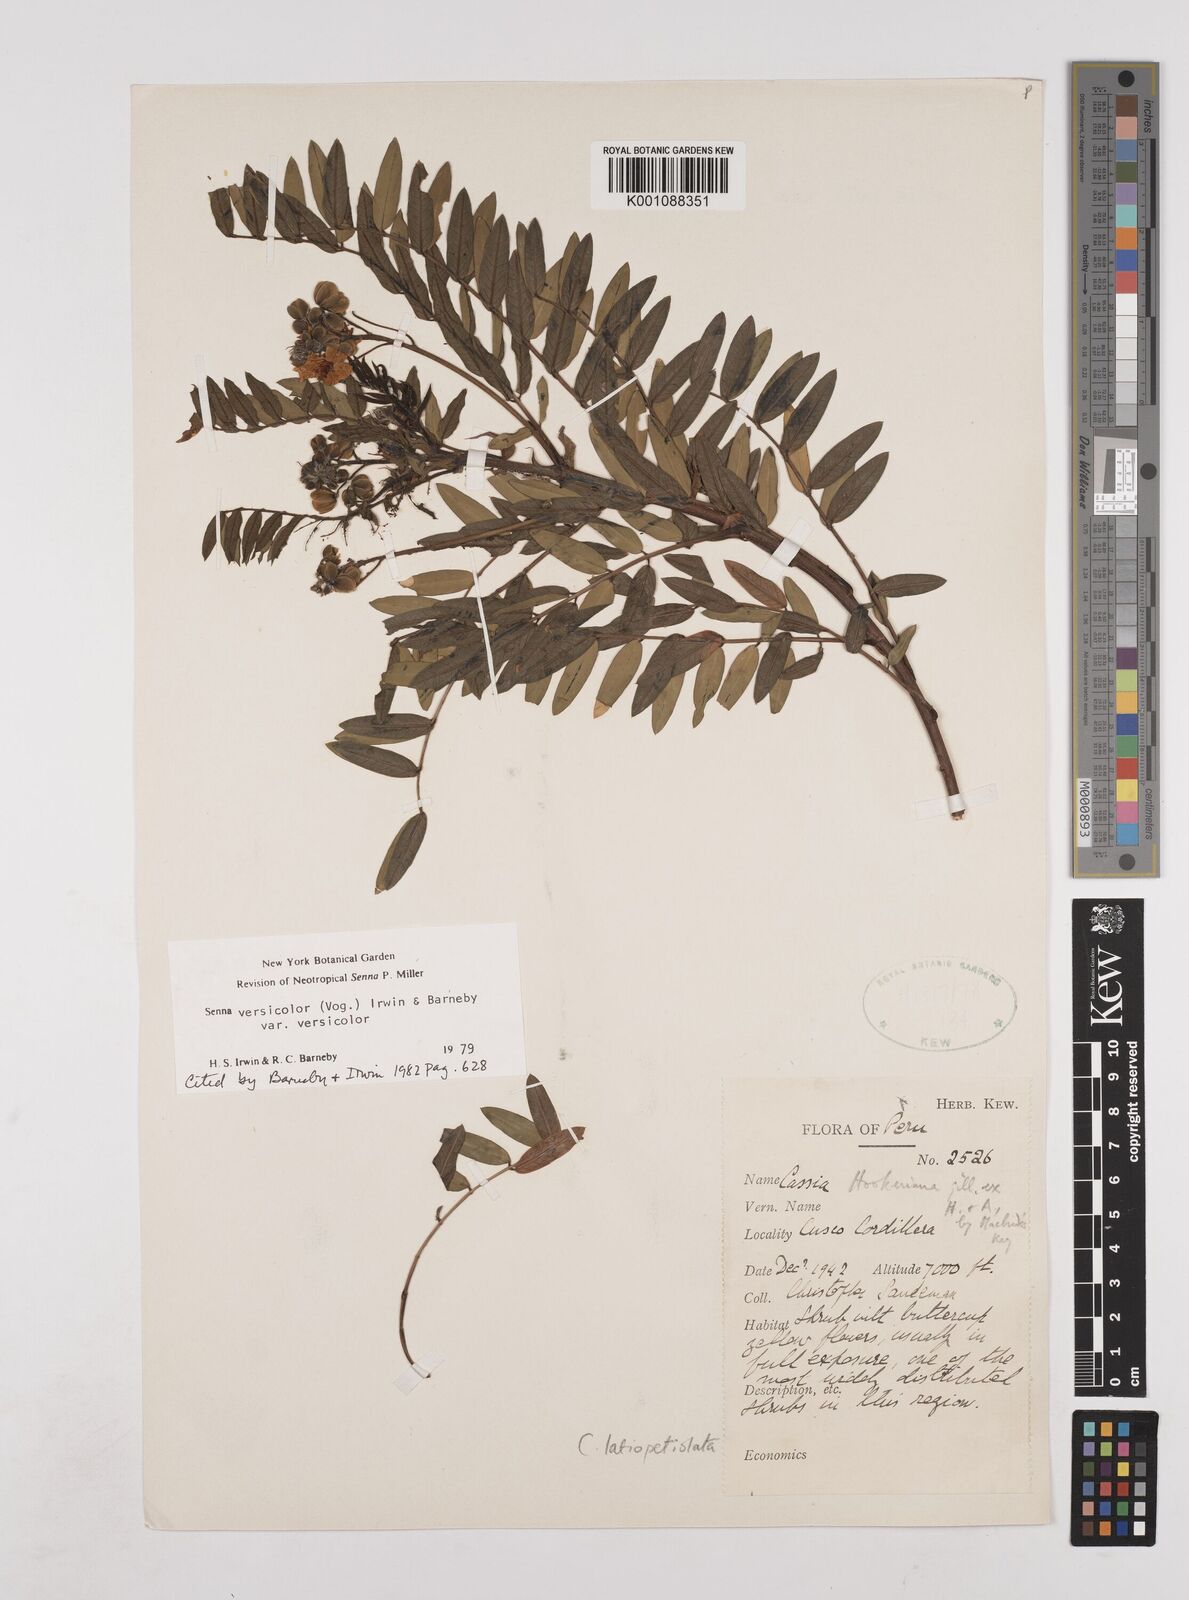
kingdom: Plantae
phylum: Tracheophyta
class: Magnoliopsida
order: Fabales
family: Fabaceae
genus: Senna
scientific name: Senna versicolor
